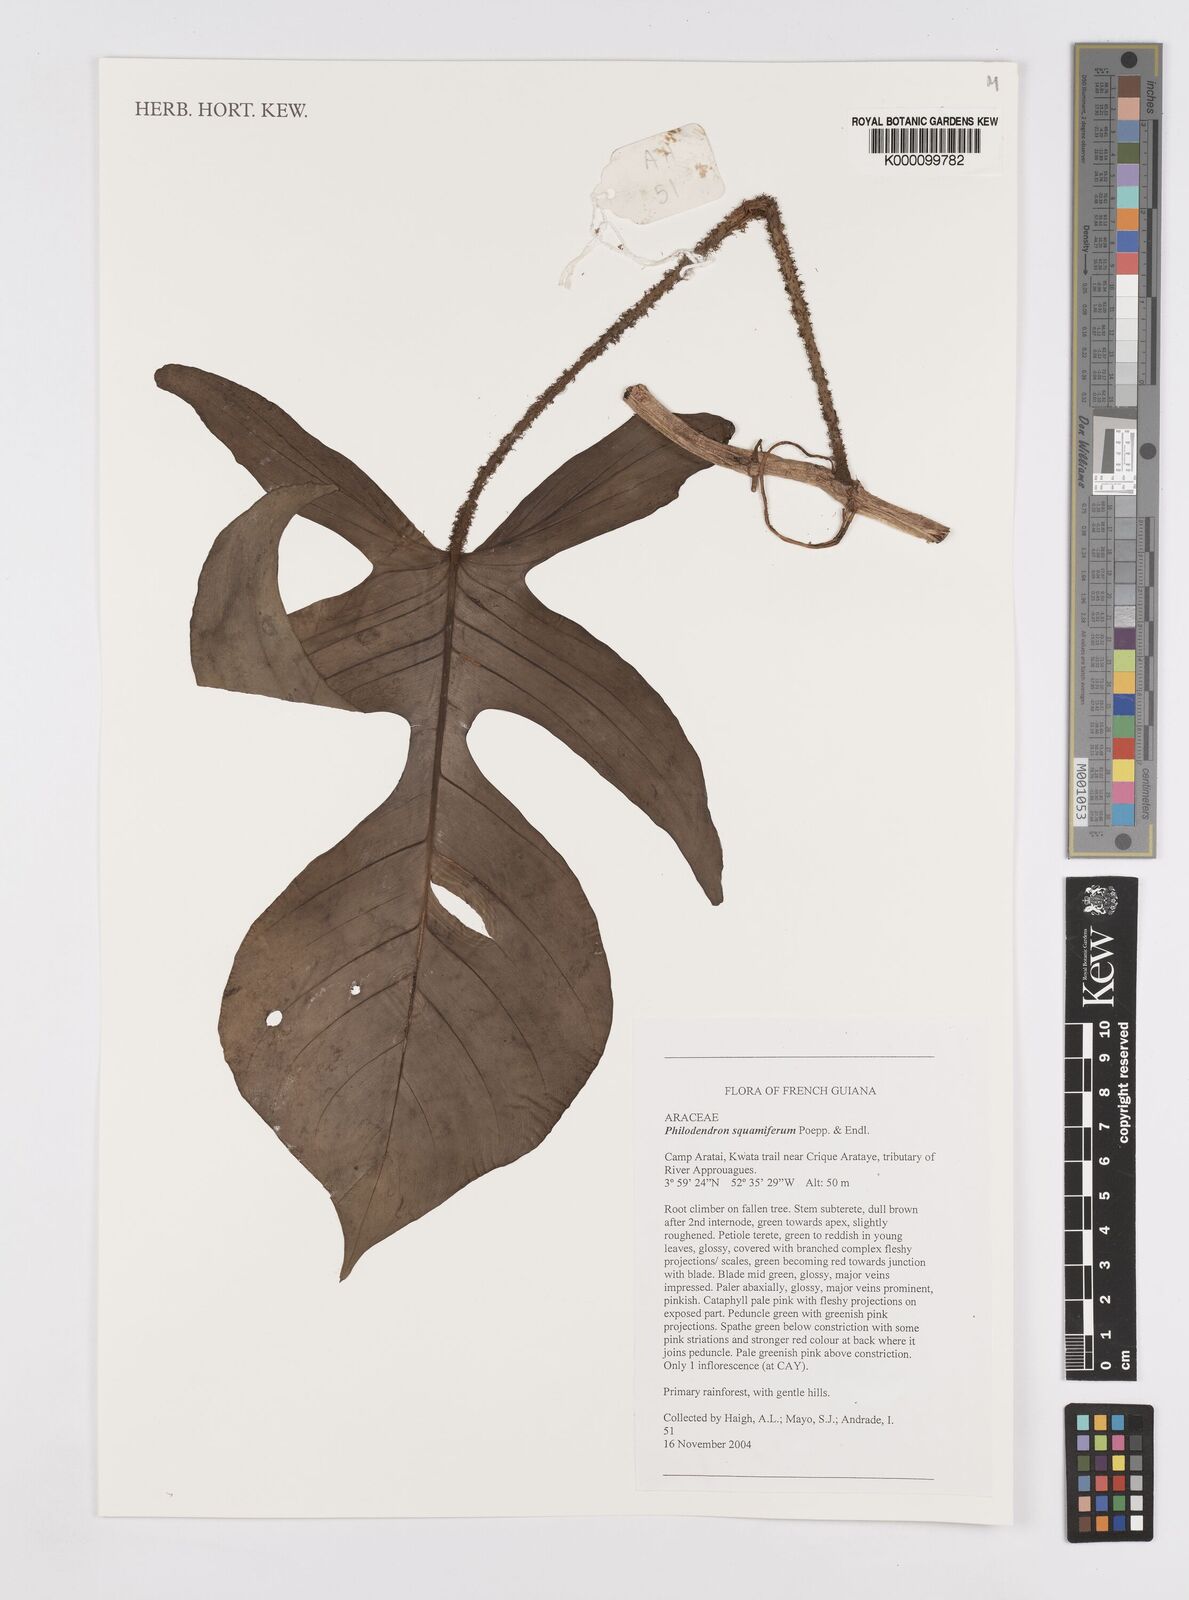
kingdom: Plantae
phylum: Tracheophyta
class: Liliopsida
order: Alismatales
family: Araceae
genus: Philodendron
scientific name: Philodendron squamiferum
